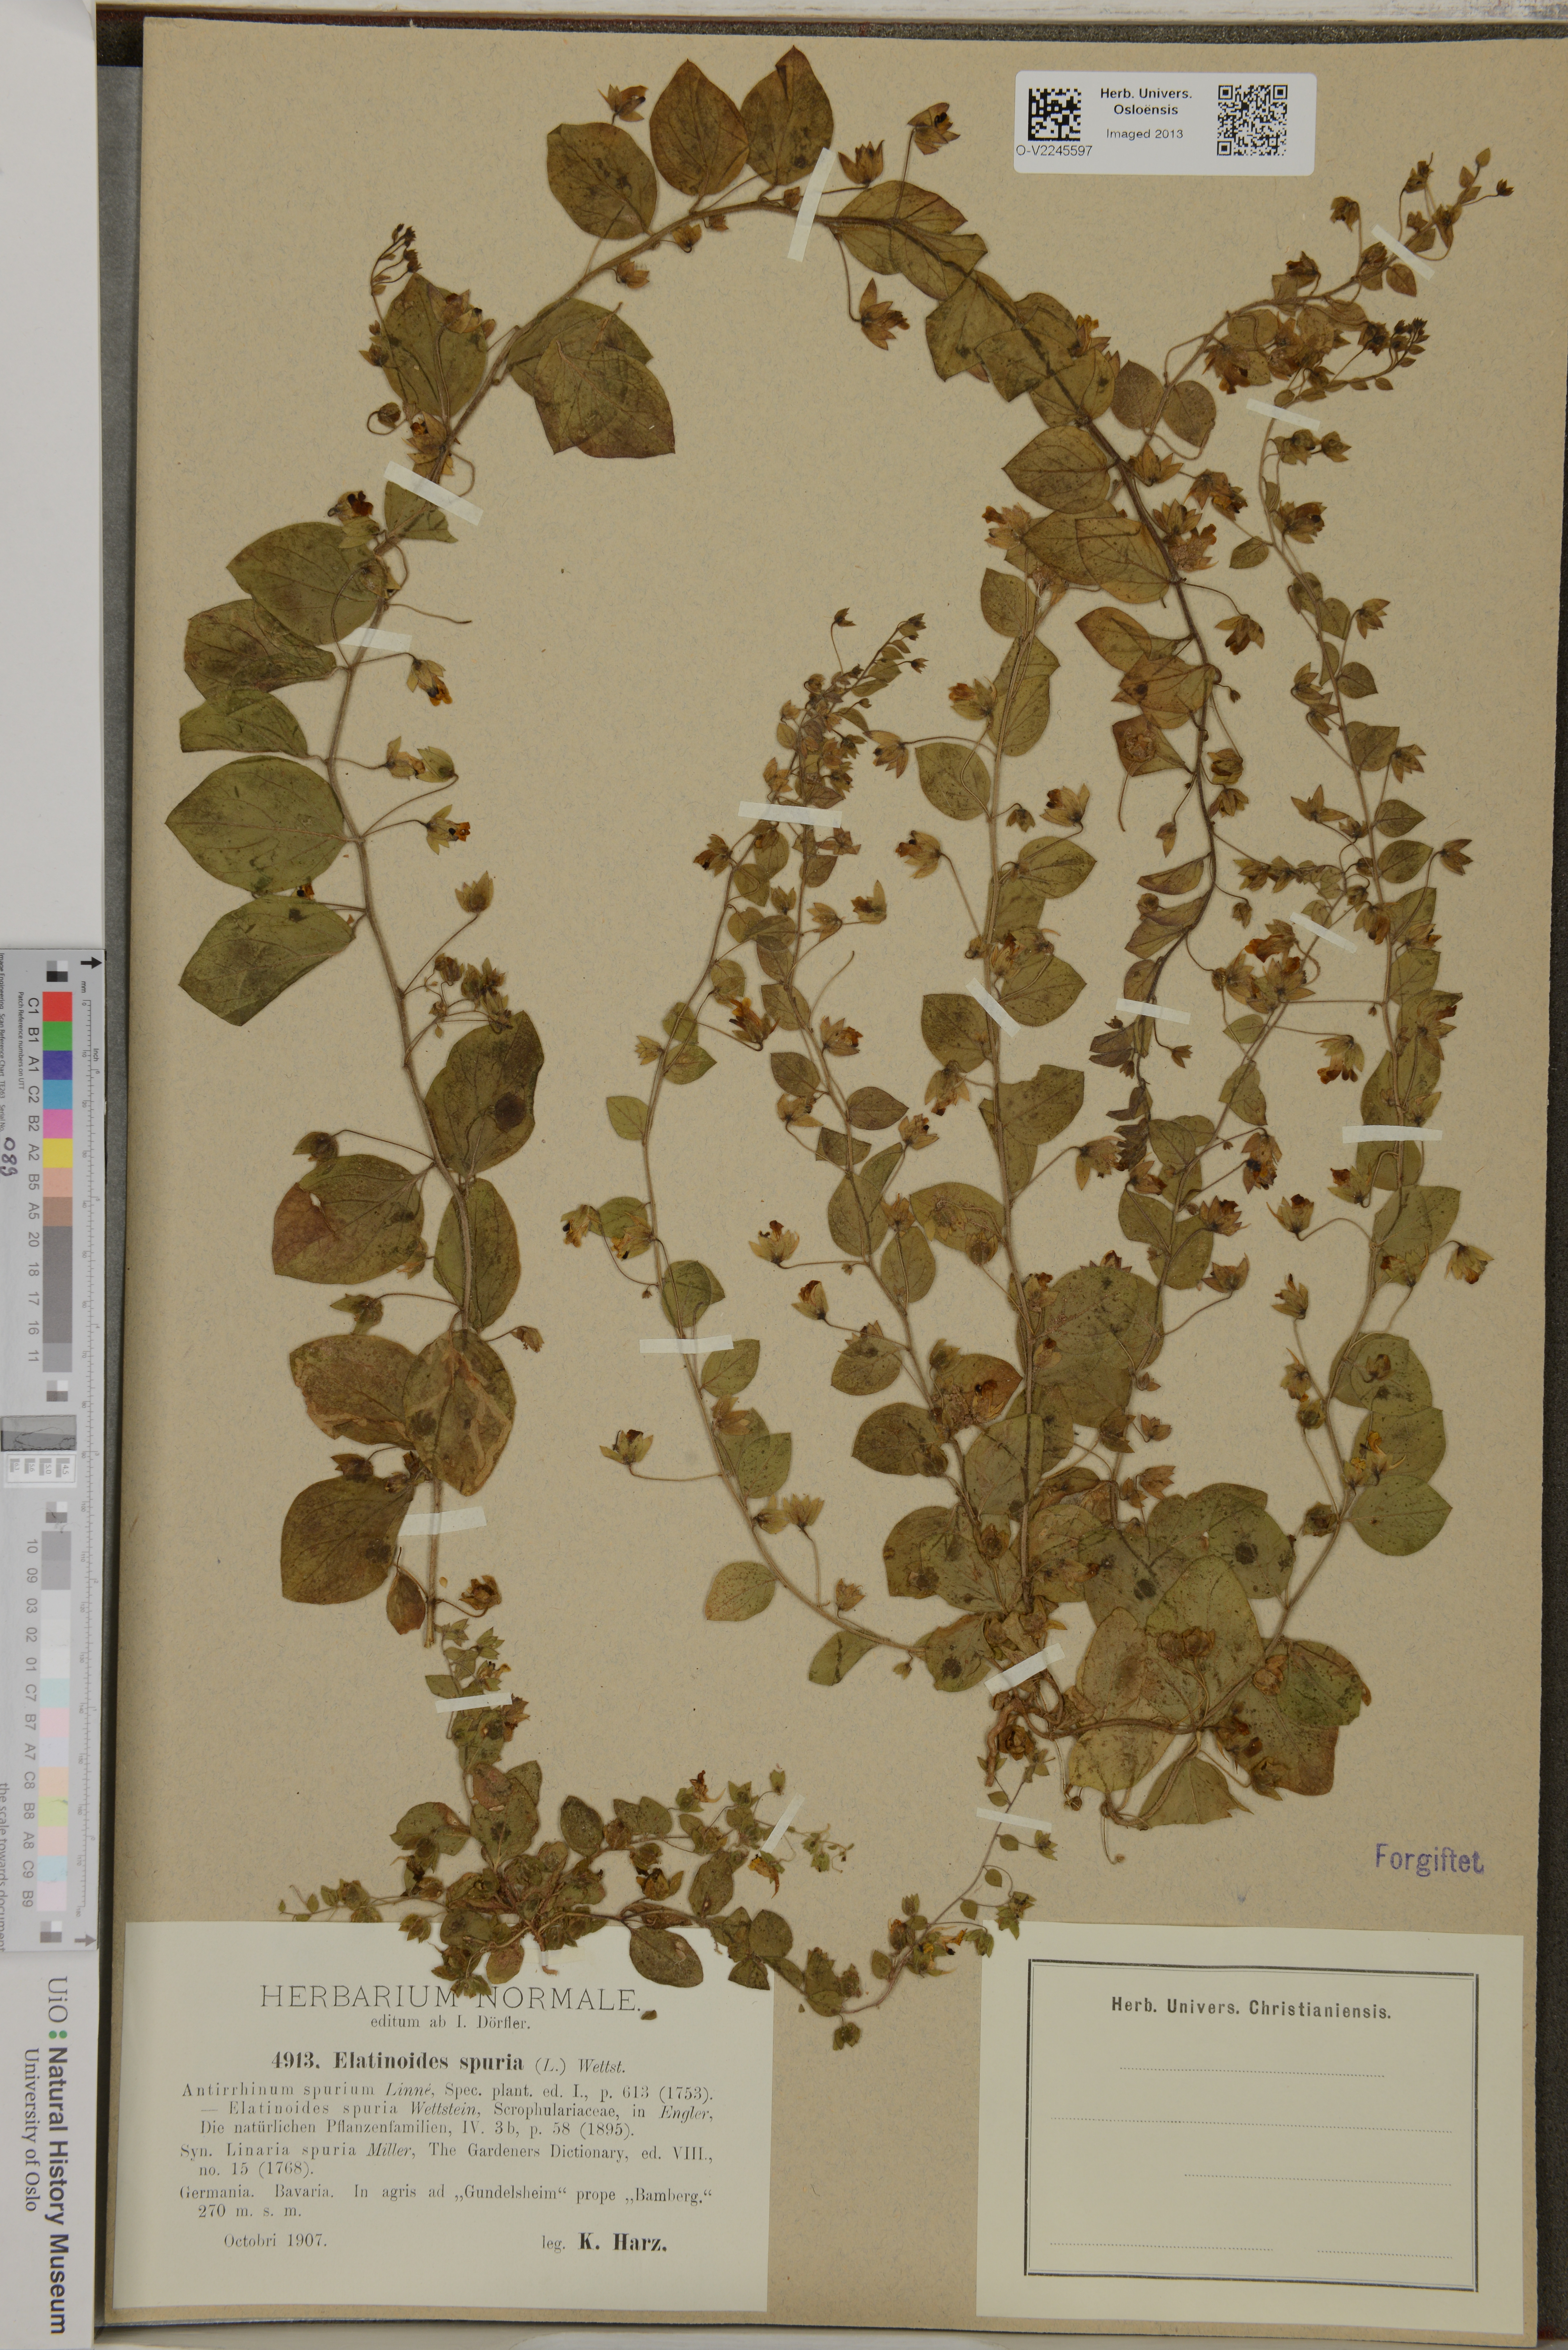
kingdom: Plantae
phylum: Tracheophyta
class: Magnoliopsida
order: Lamiales
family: Plantaginaceae
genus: Kickxia
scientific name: Kickxia spuria
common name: Round-leaved fluellen
